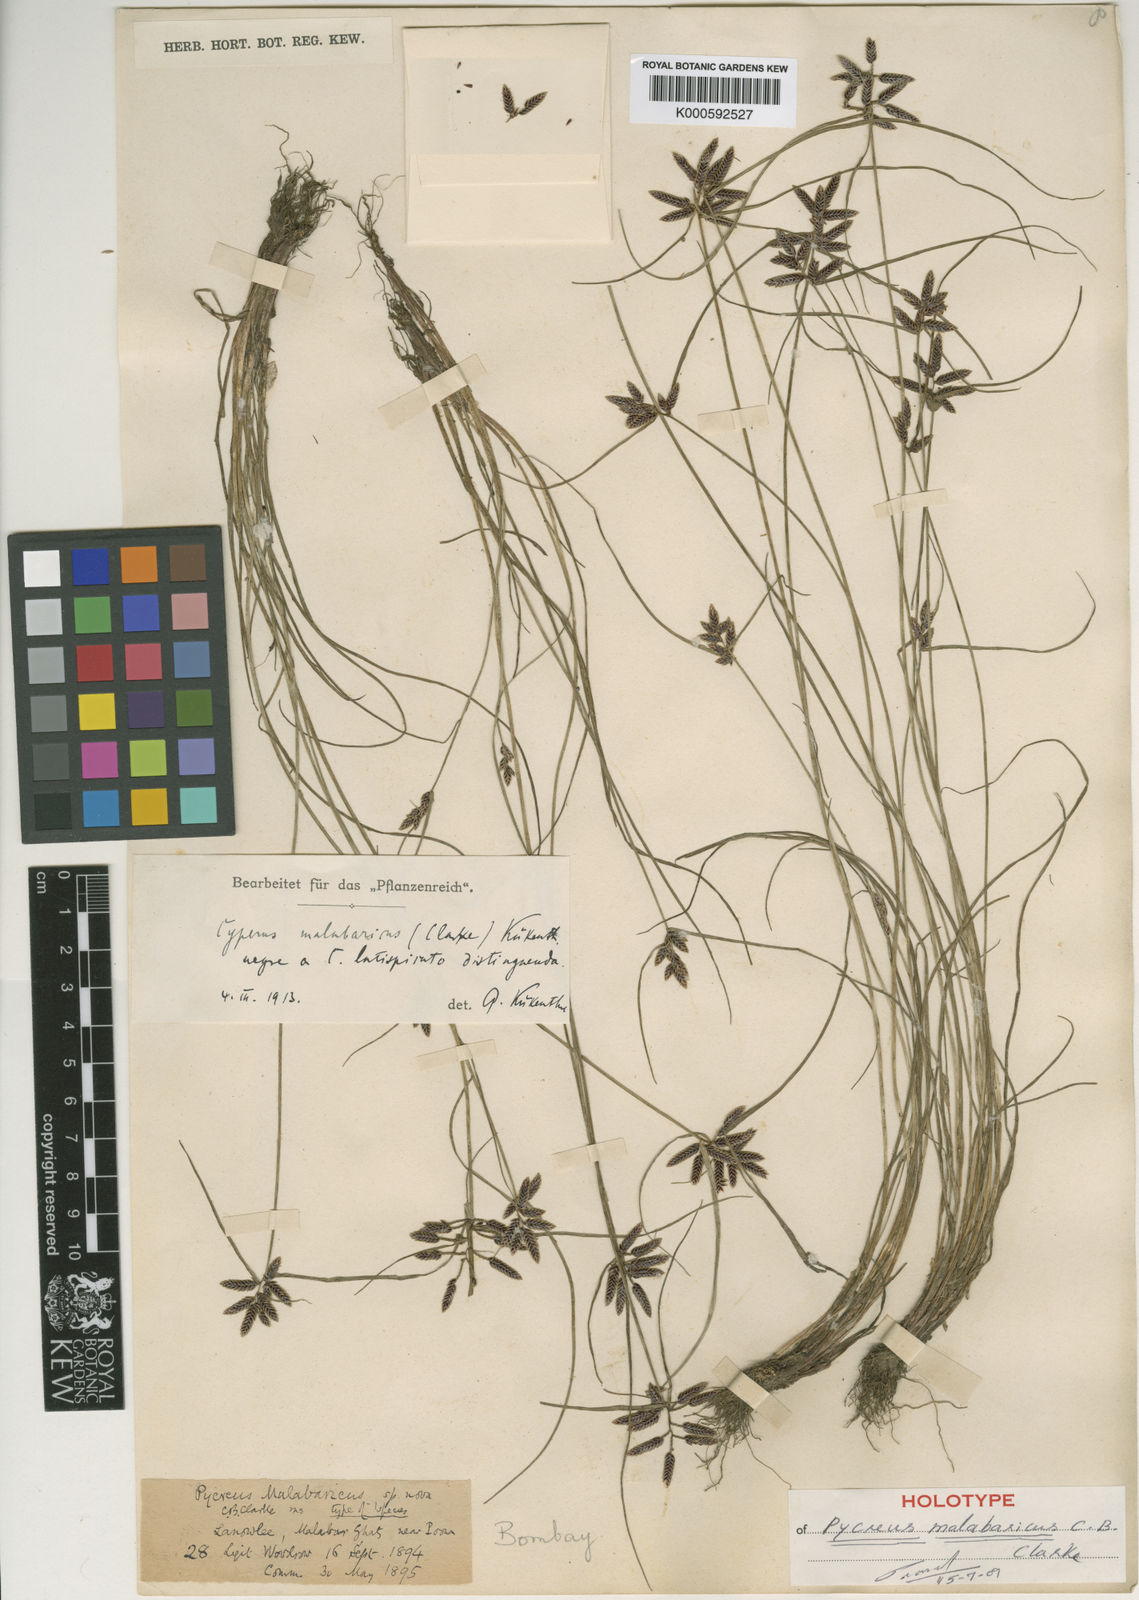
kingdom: Plantae
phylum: Tracheophyta
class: Liliopsida
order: Poales
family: Cyperaceae
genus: Cyperus
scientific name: Cyperus malabaricus
